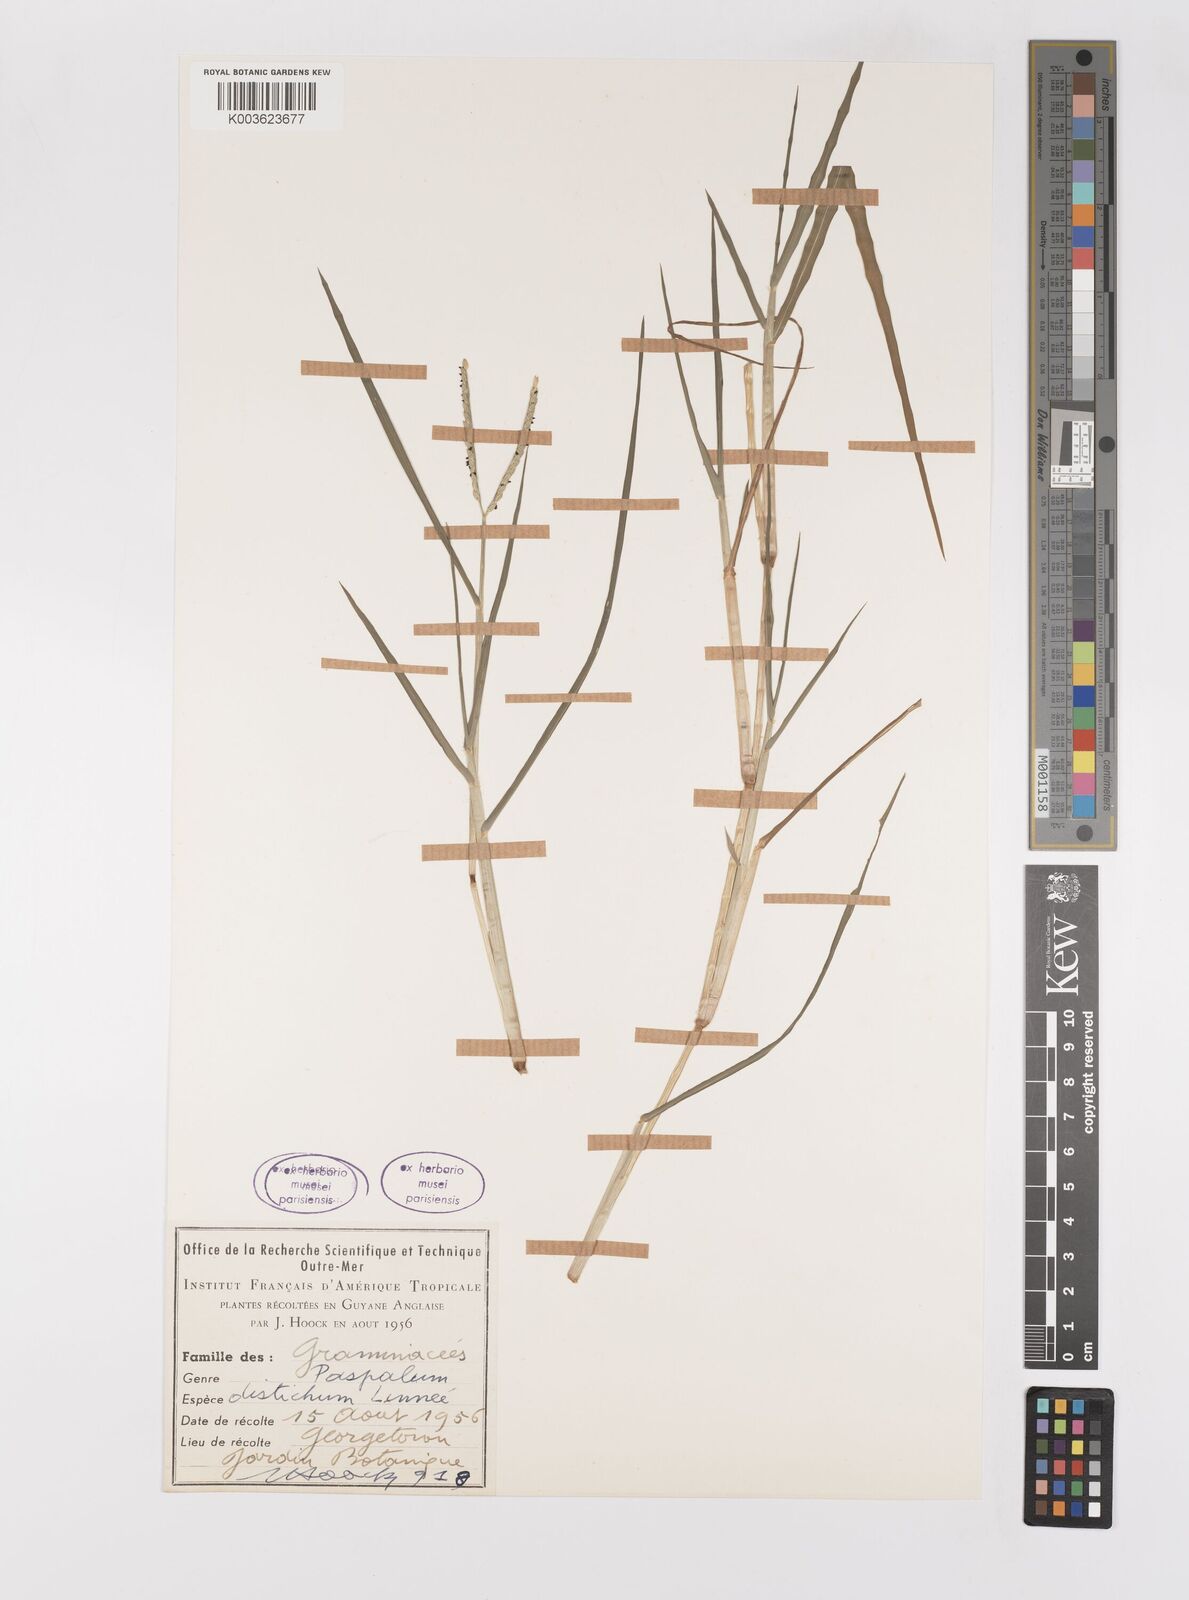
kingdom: Plantae
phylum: Tracheophyta
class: Liliopsida
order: Poales
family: Poaceae
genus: Paspalum
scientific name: Paspalum distichum
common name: Knotgrass
